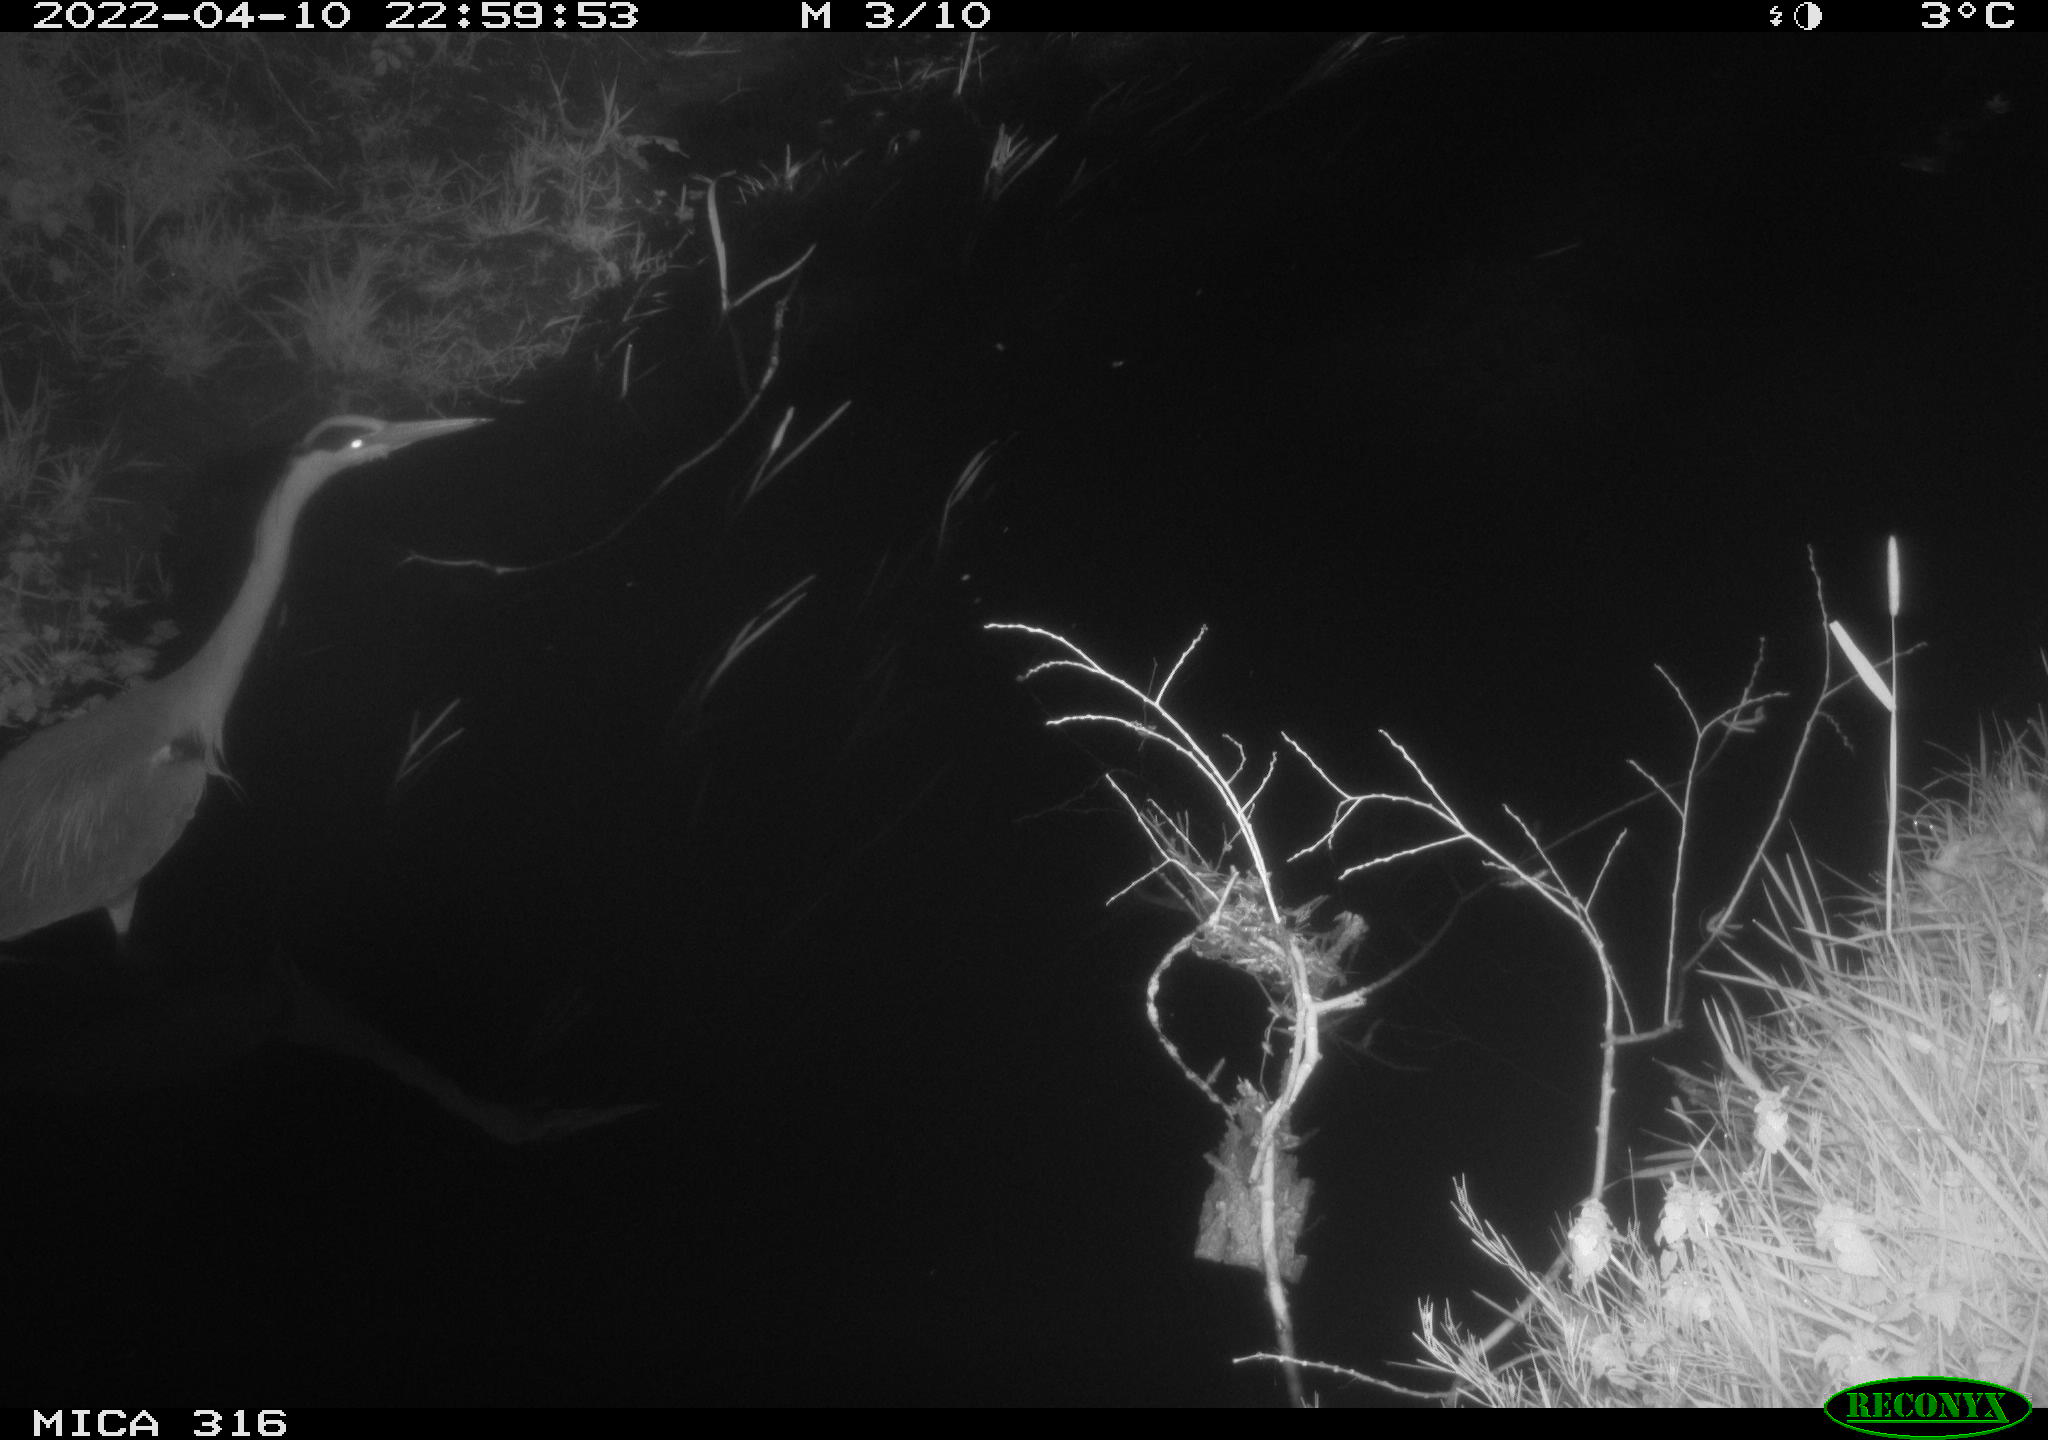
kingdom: Animalia
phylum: Chordata
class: Aves
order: Pelecaniformes
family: Ardeidae
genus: Ardea
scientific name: Ardea
